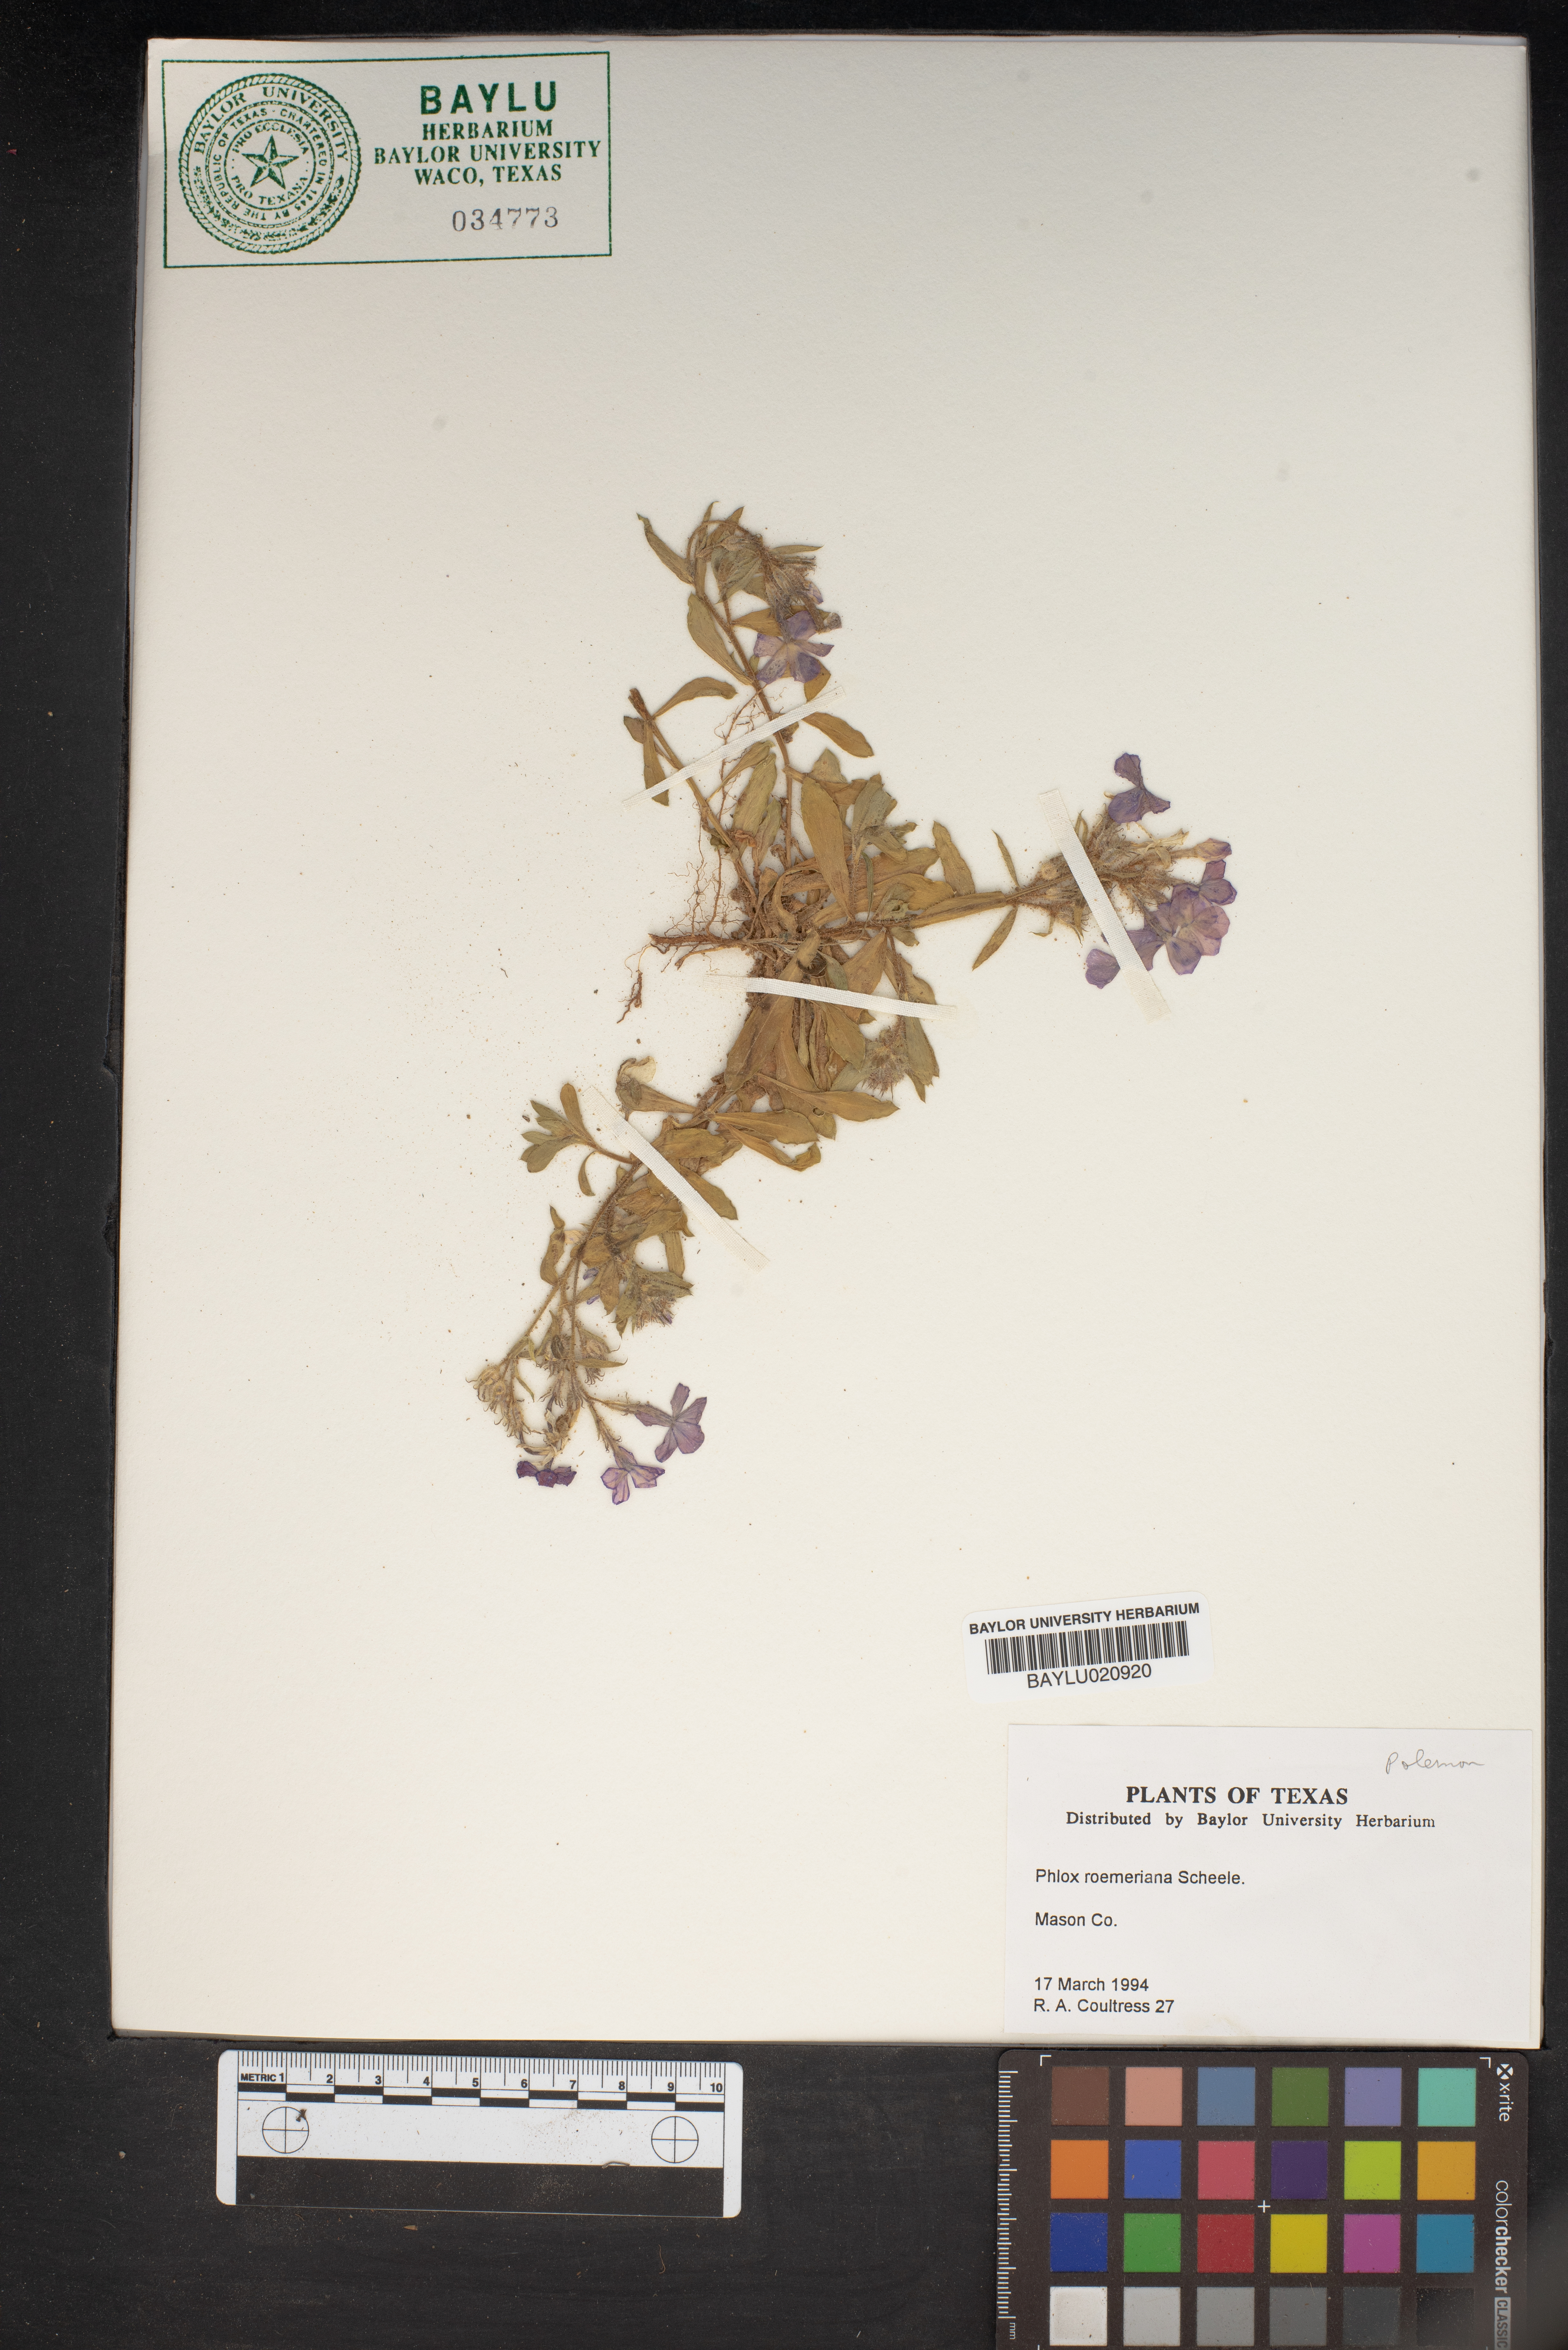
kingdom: Plantae
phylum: Tracheophyta
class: Magnoliopsida
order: Ericales
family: Polemoniaceae
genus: Phlox
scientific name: Phlox roemeriana
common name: Roemer's phlox
